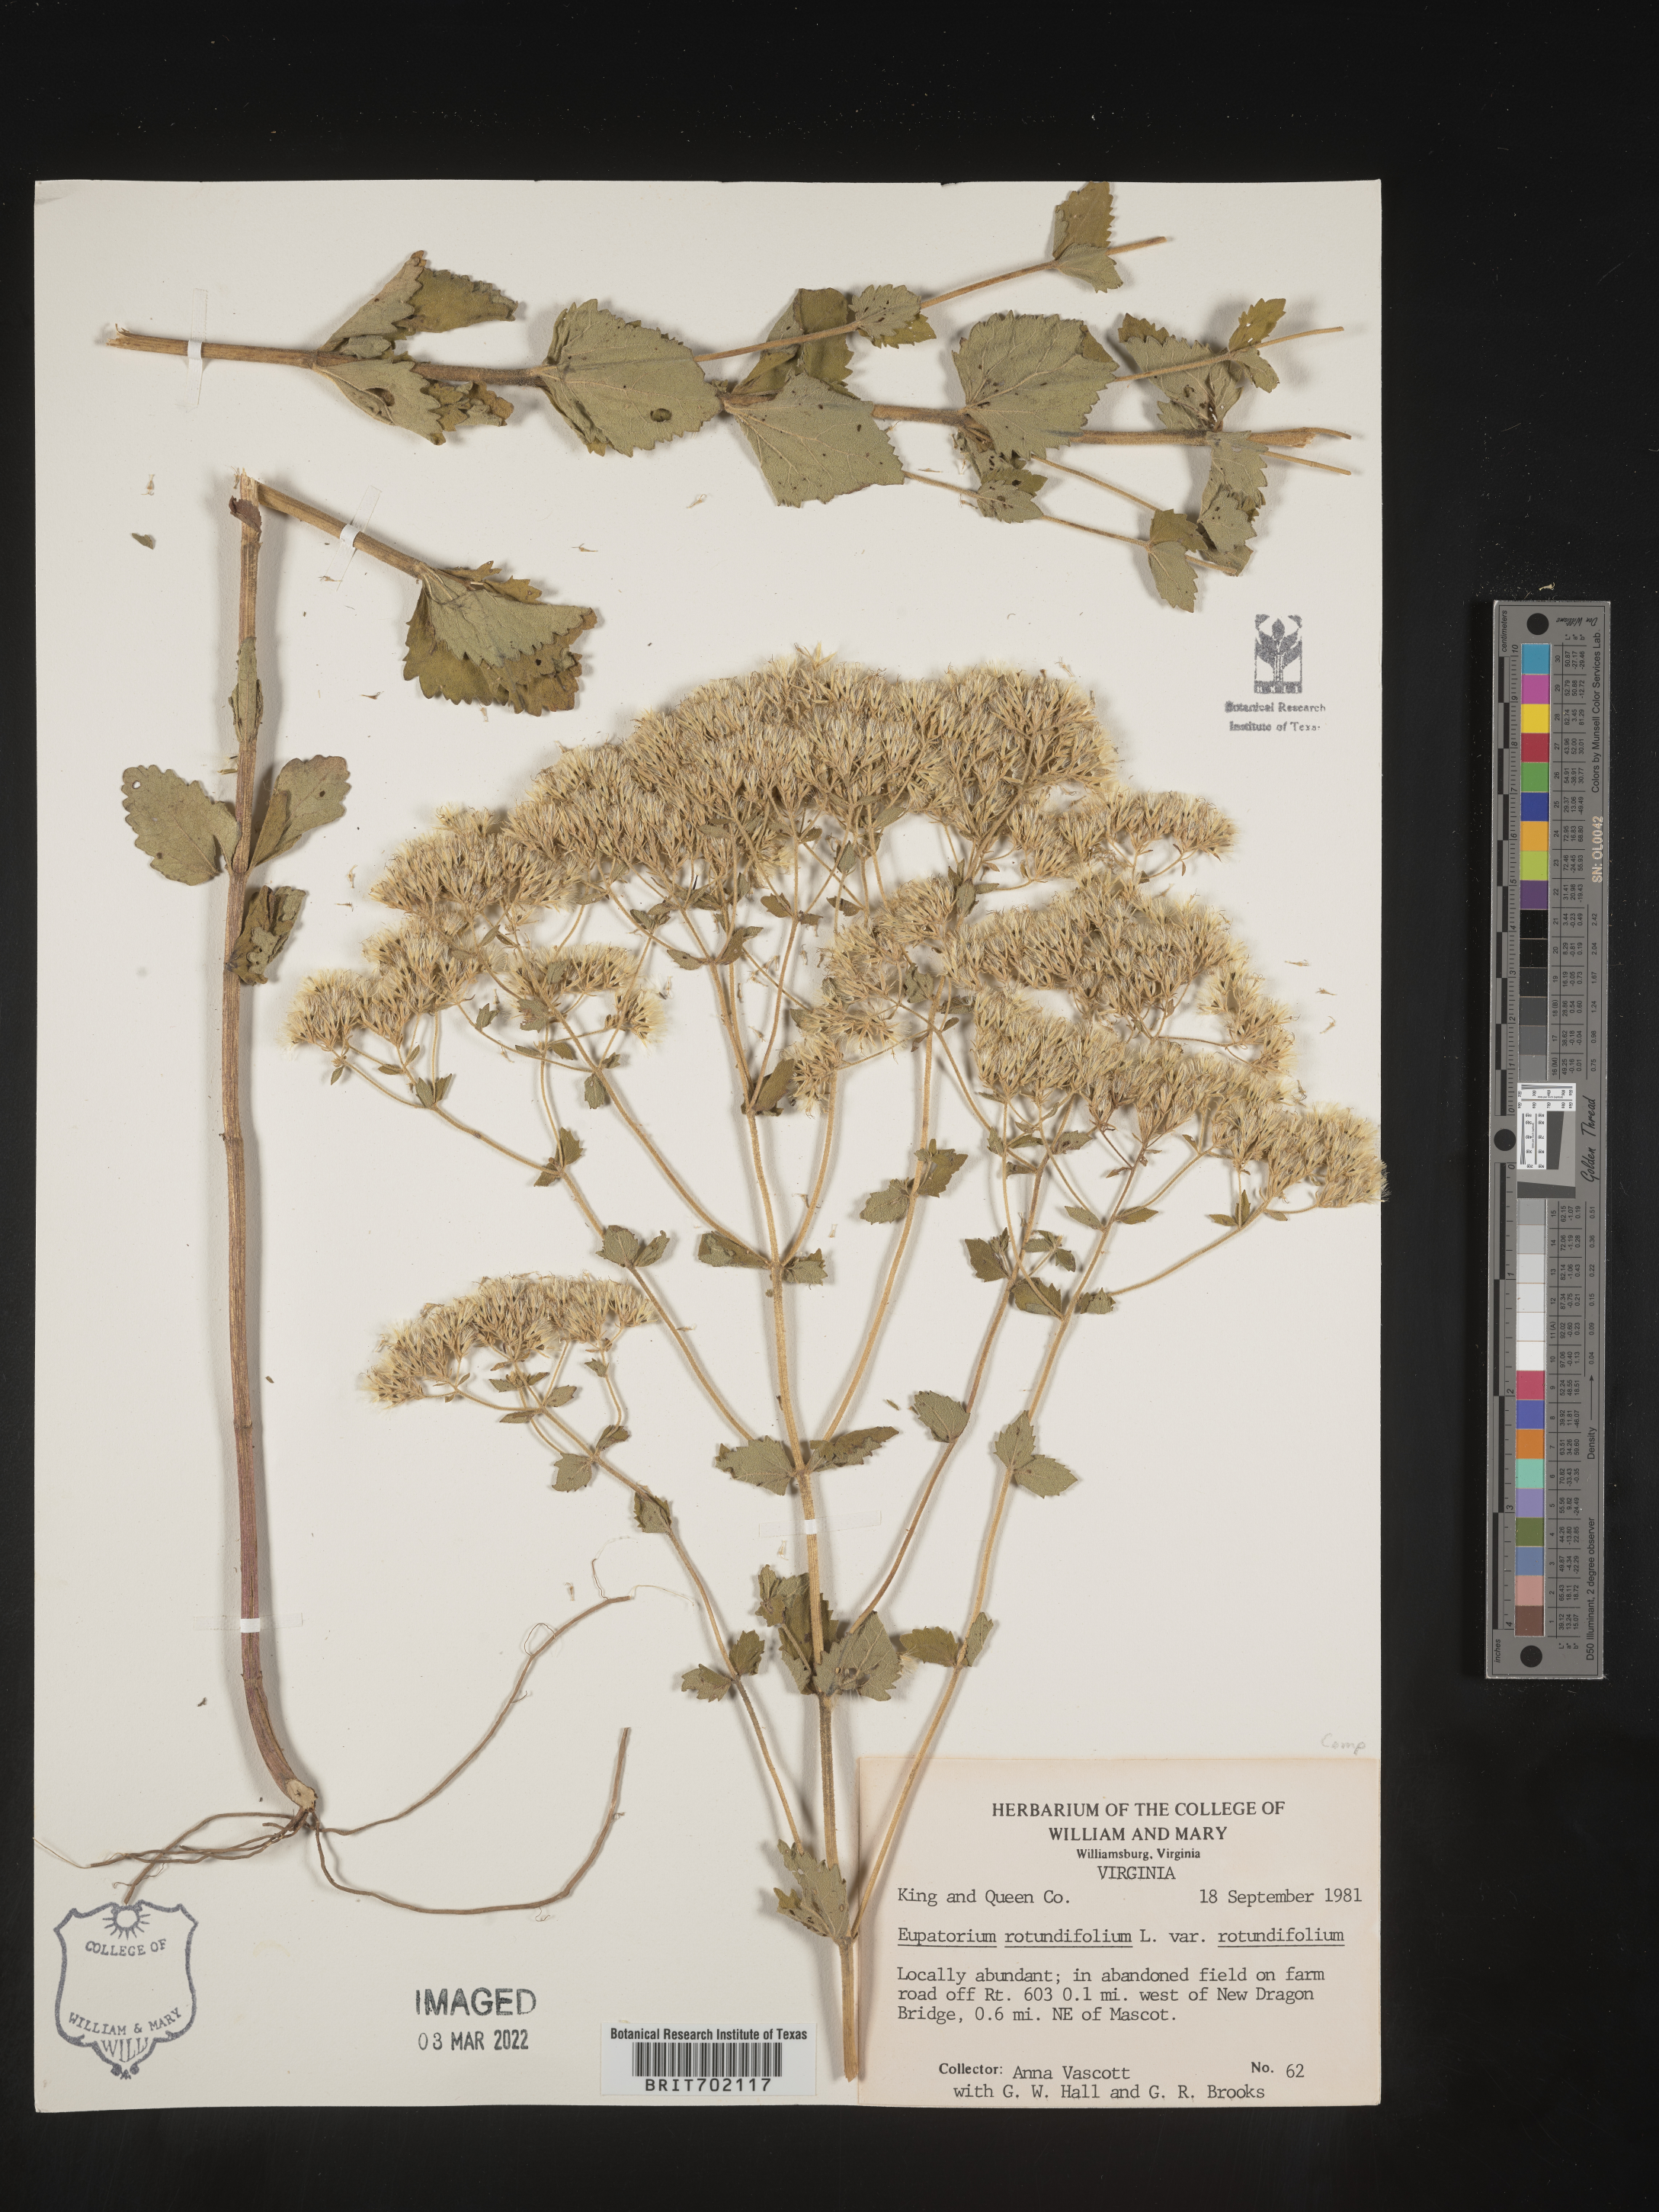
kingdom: Plantae
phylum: Tracheophyta
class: Magnoliopsida
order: Asterales
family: Asteraceae
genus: Eupatorium
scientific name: Eupatorium rotundifolium
